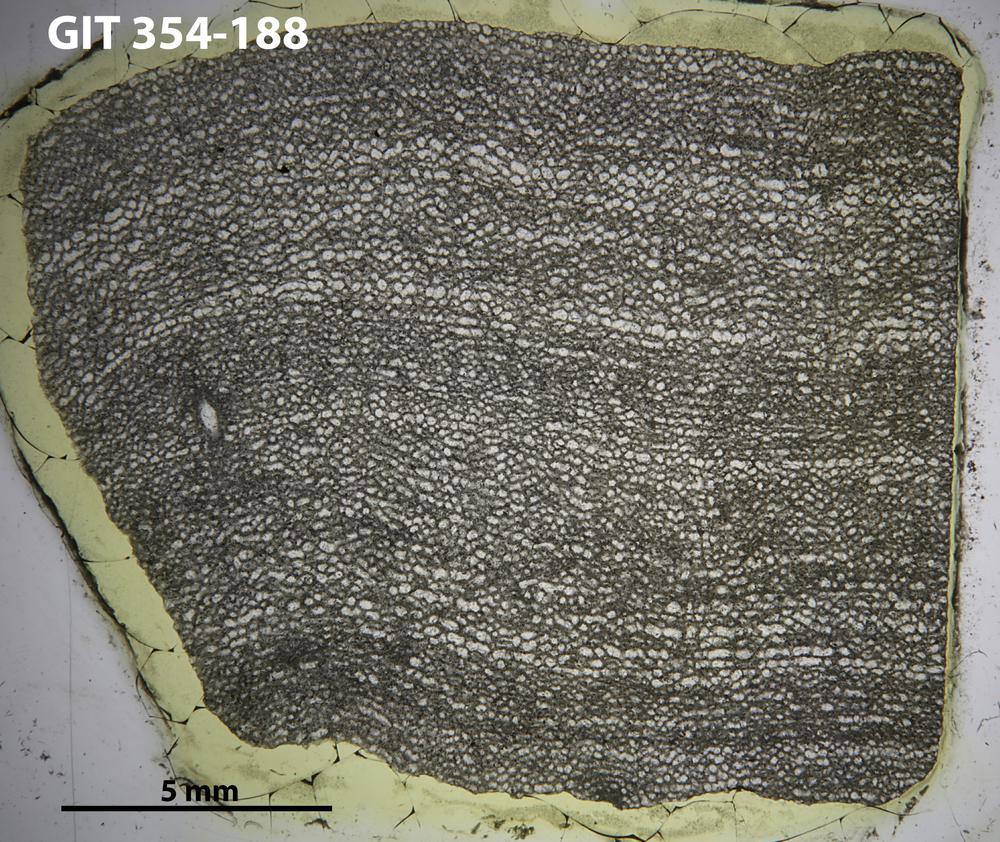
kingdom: Animalia
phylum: Porifera
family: Clathrodictyidae
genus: Clathrodictyon
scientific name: Clathrodictyon boreale
